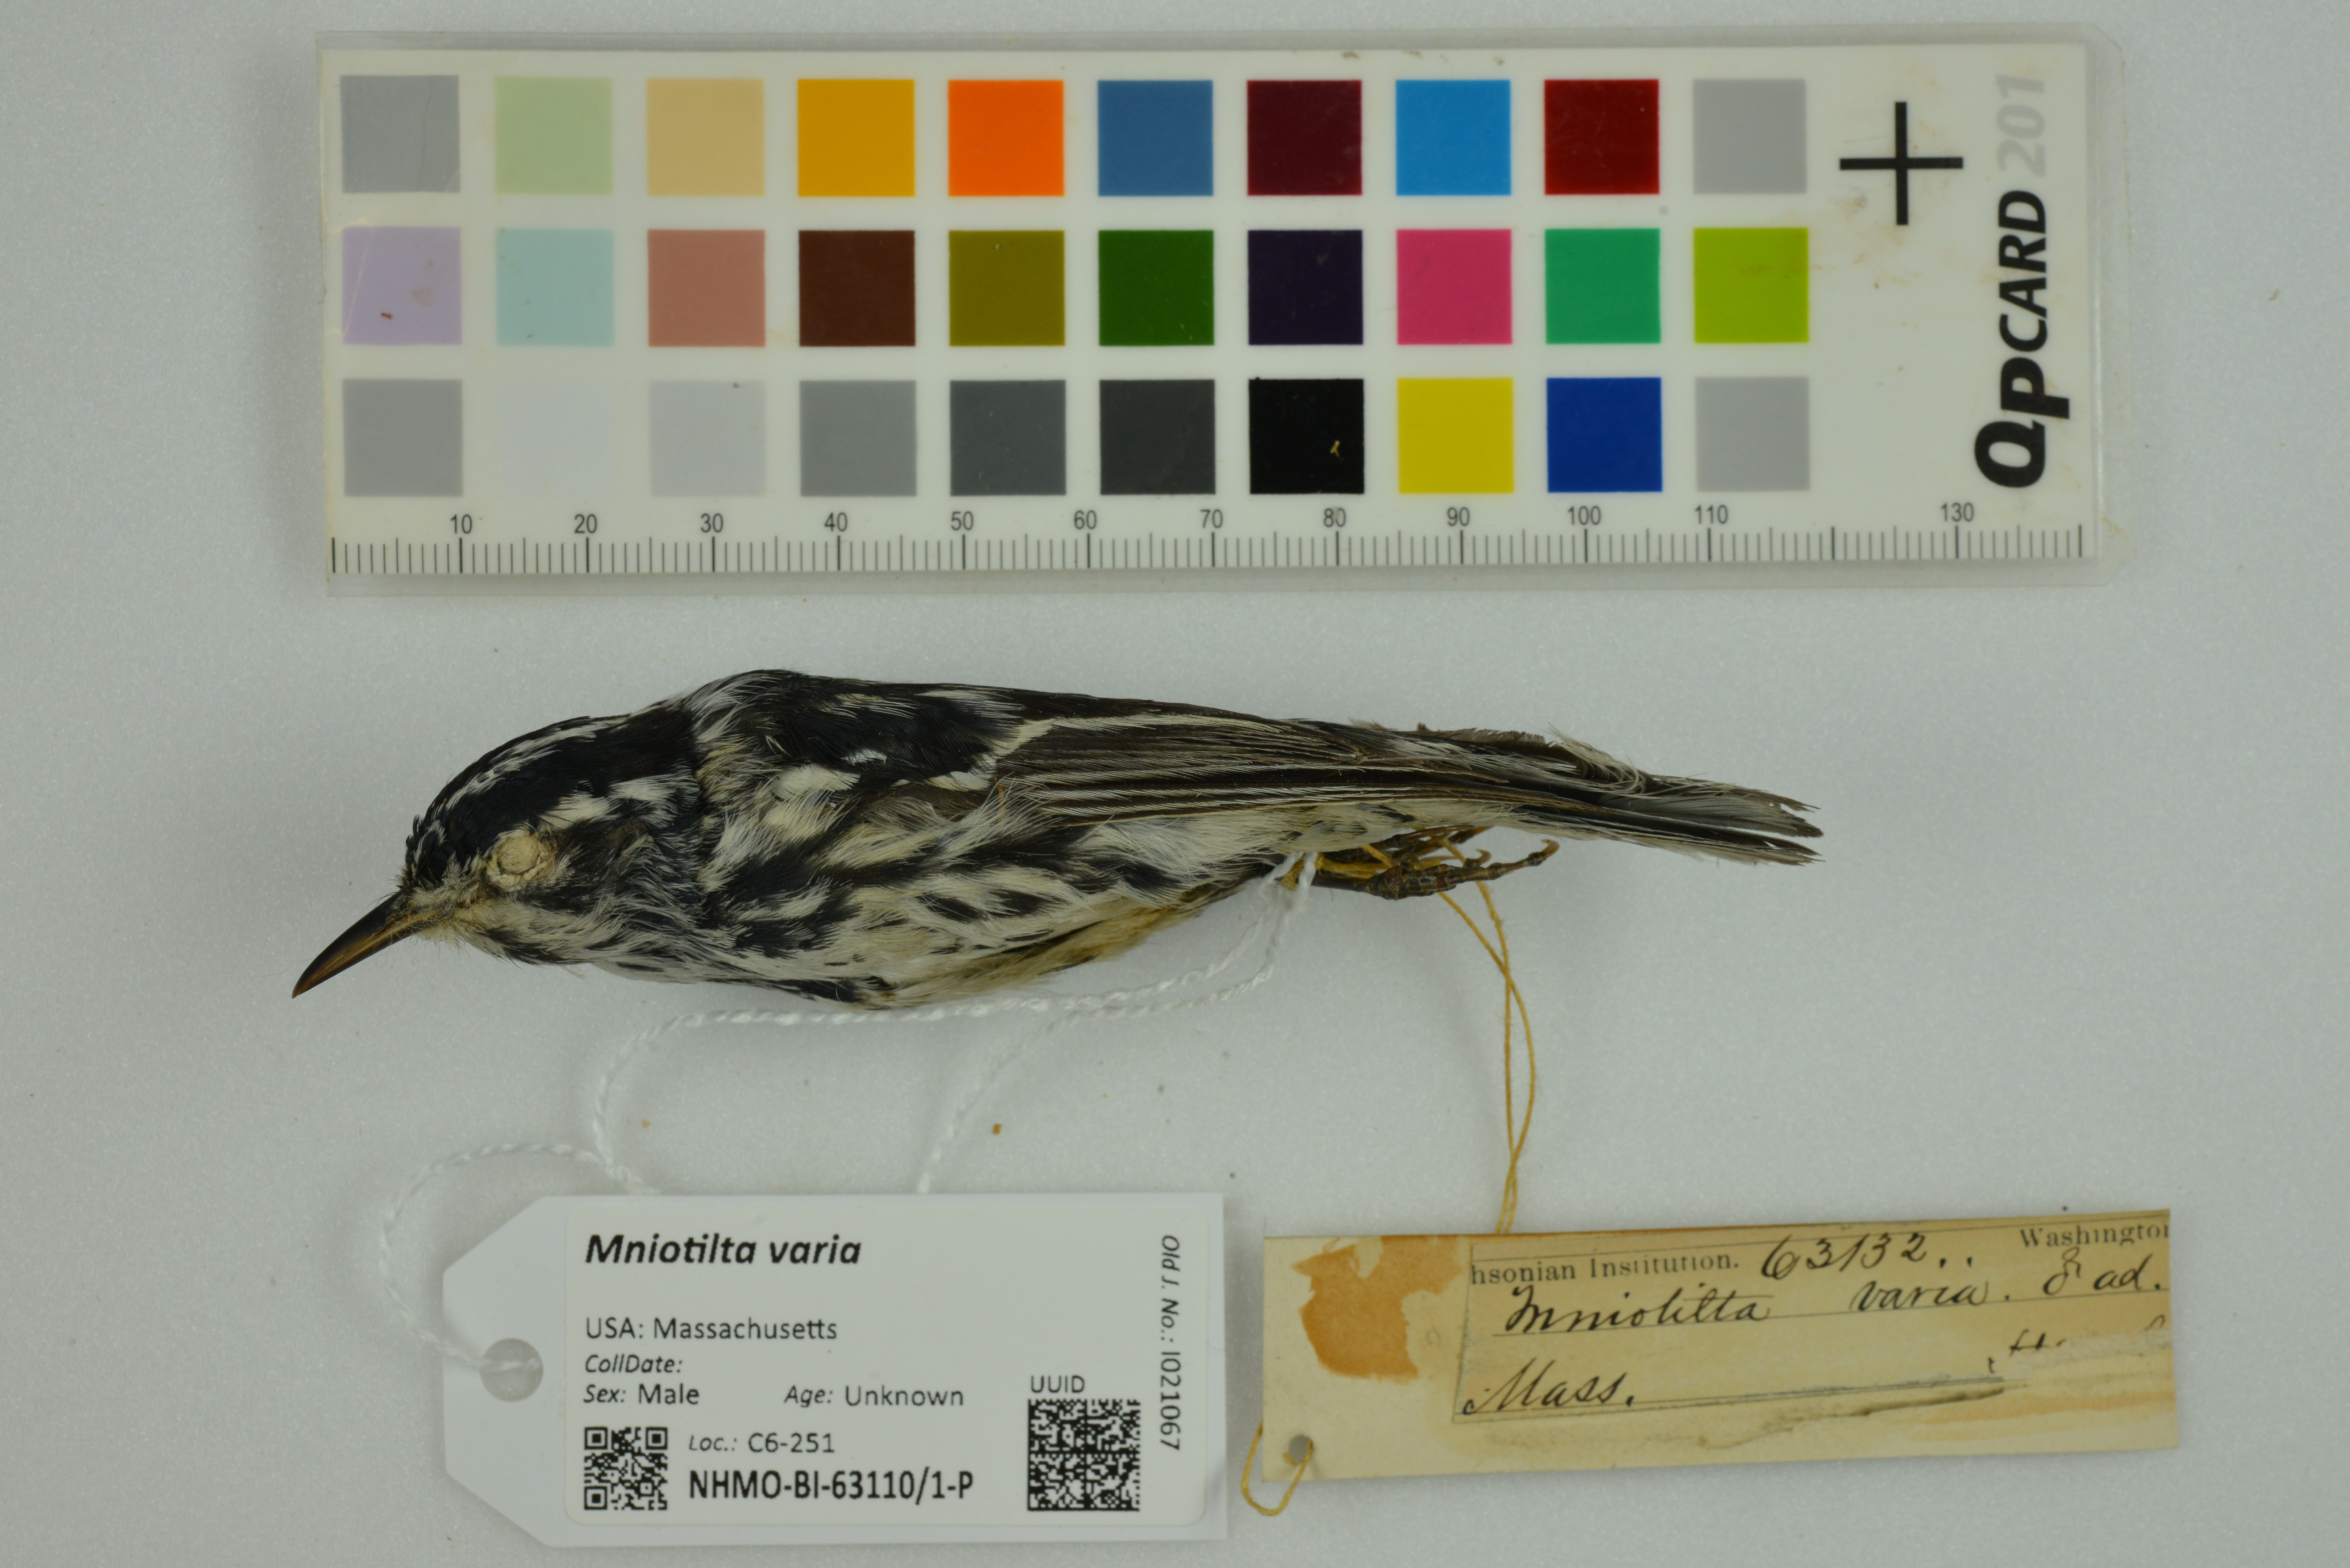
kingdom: Animalia
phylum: Chordata
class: Aves
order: Passeriformes
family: Parulidae
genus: Mniotilta
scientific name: Mniotilta varia
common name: Black-and-white warbler
